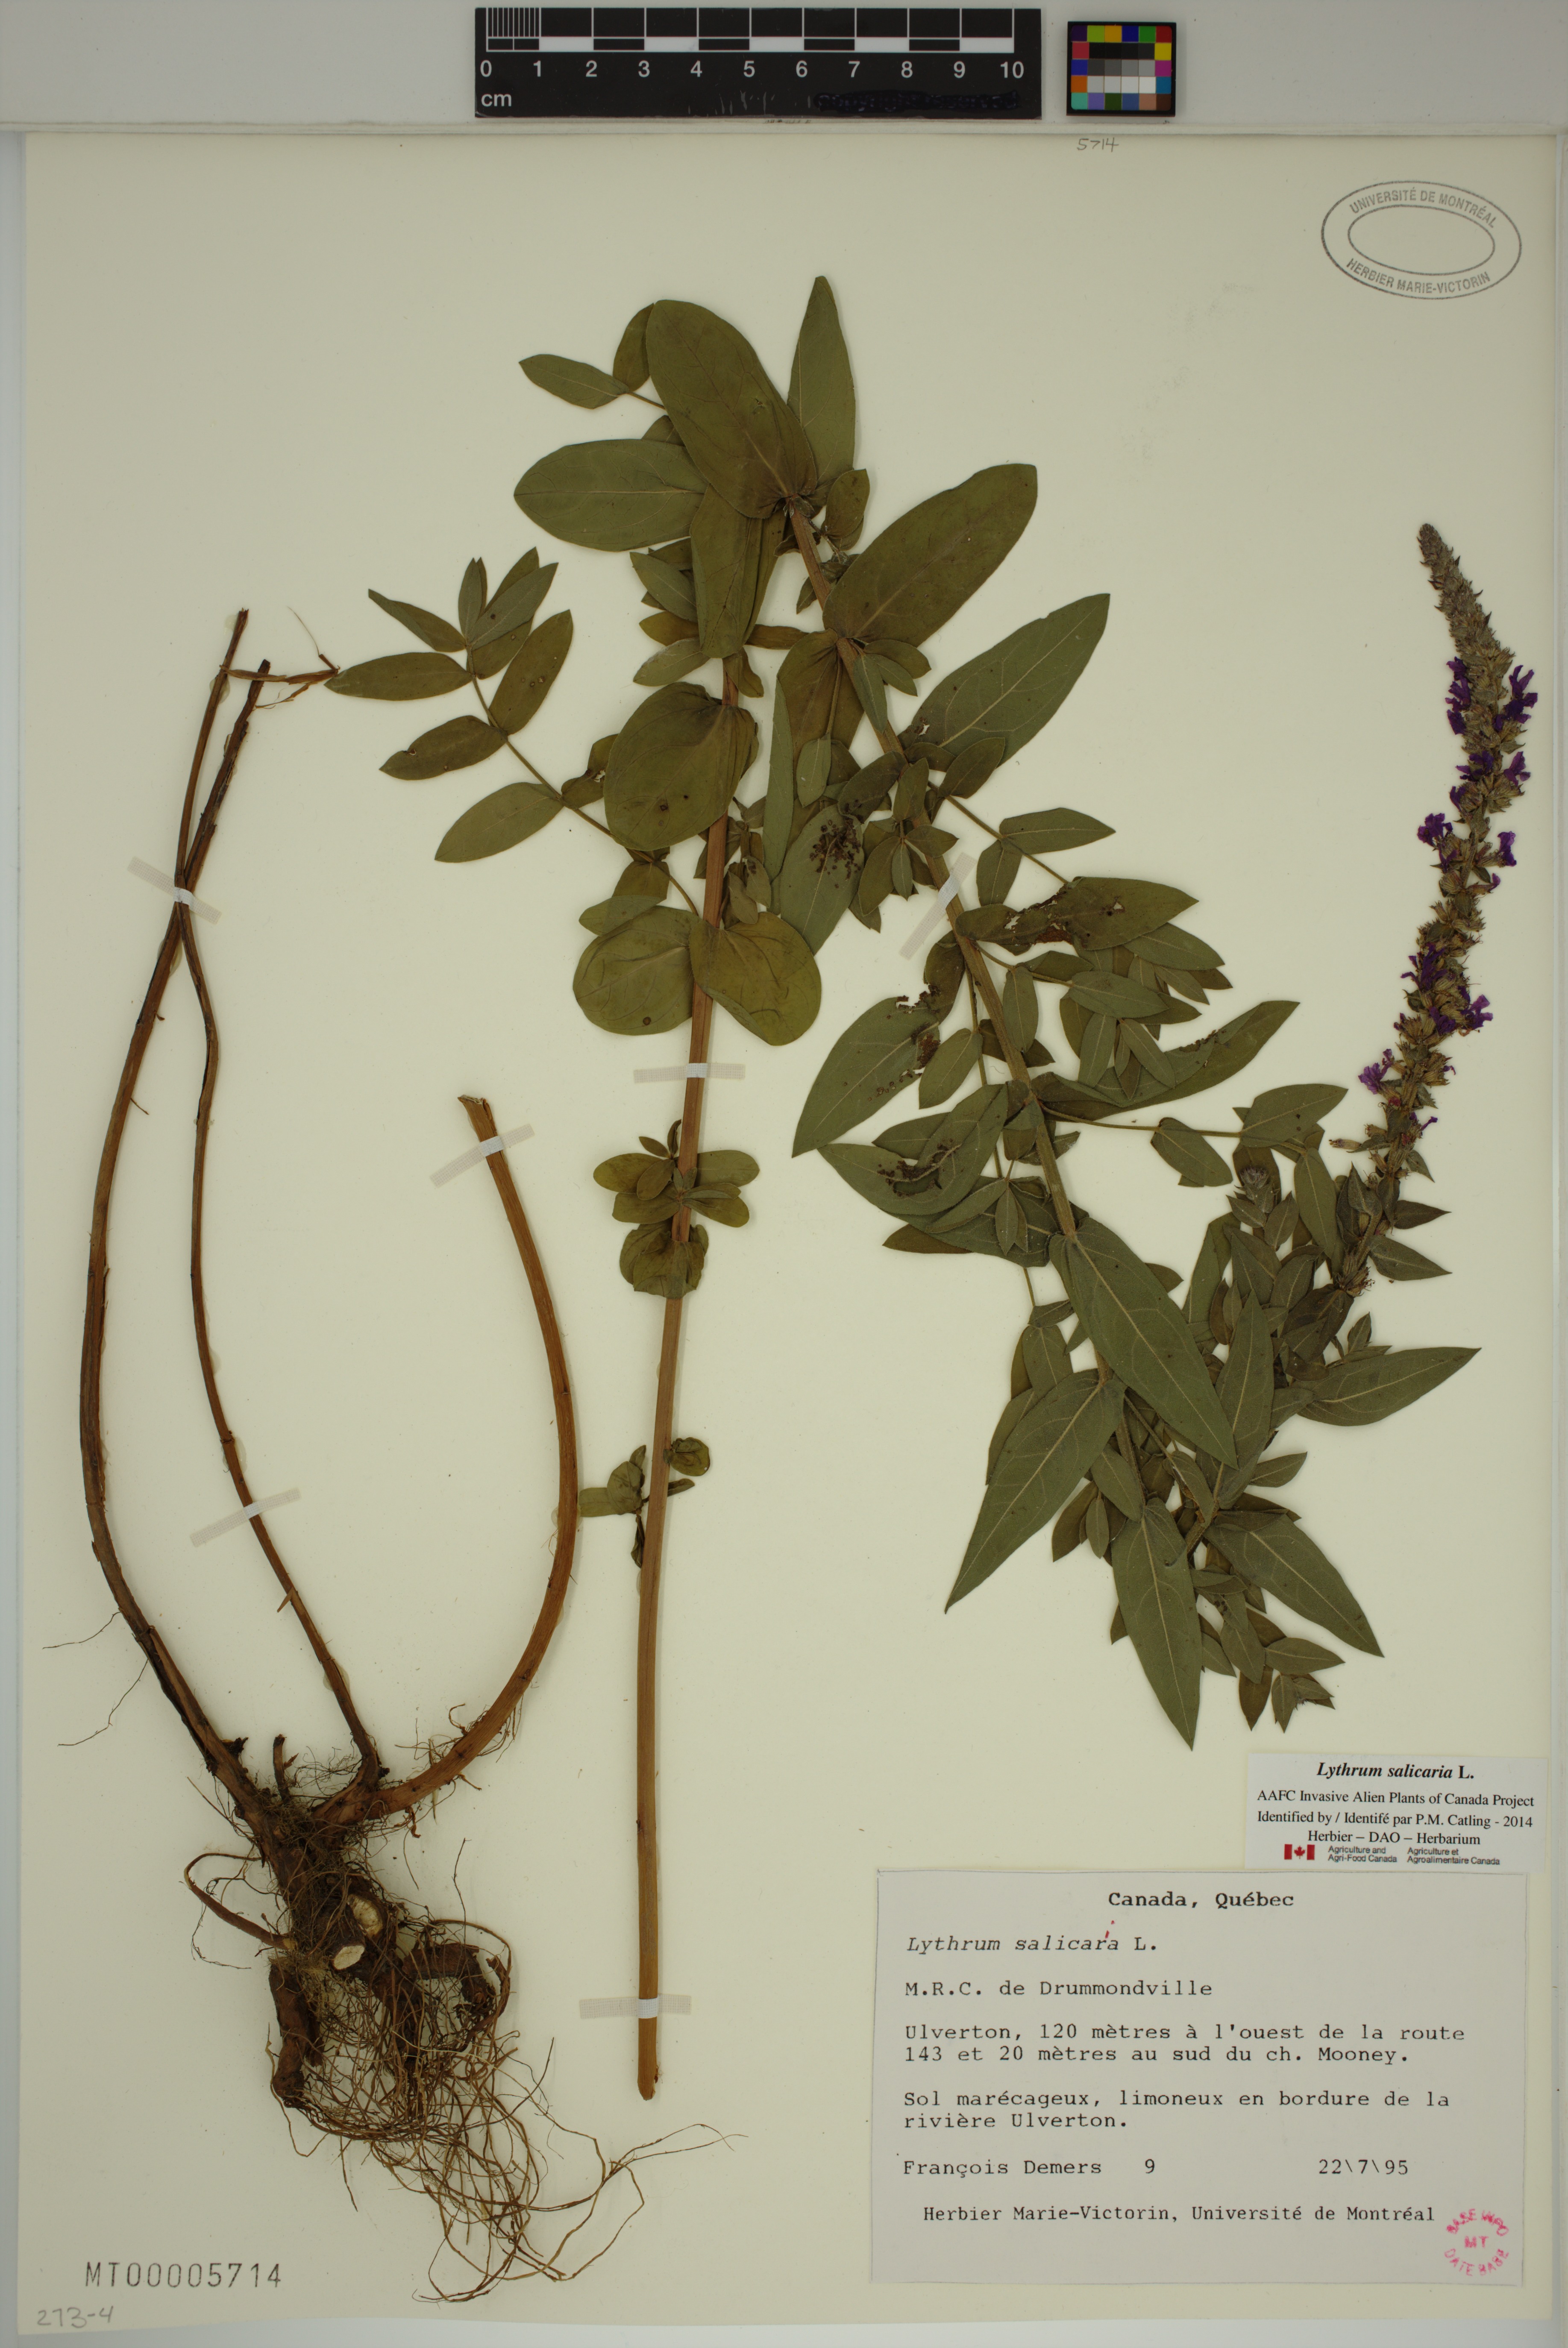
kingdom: Plantae
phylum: Tracheophyta
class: Magnoliopsida
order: Myrtales
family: Lythraceae
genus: Lythrum
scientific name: Lythrum salicaria
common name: Purple loosestrife
